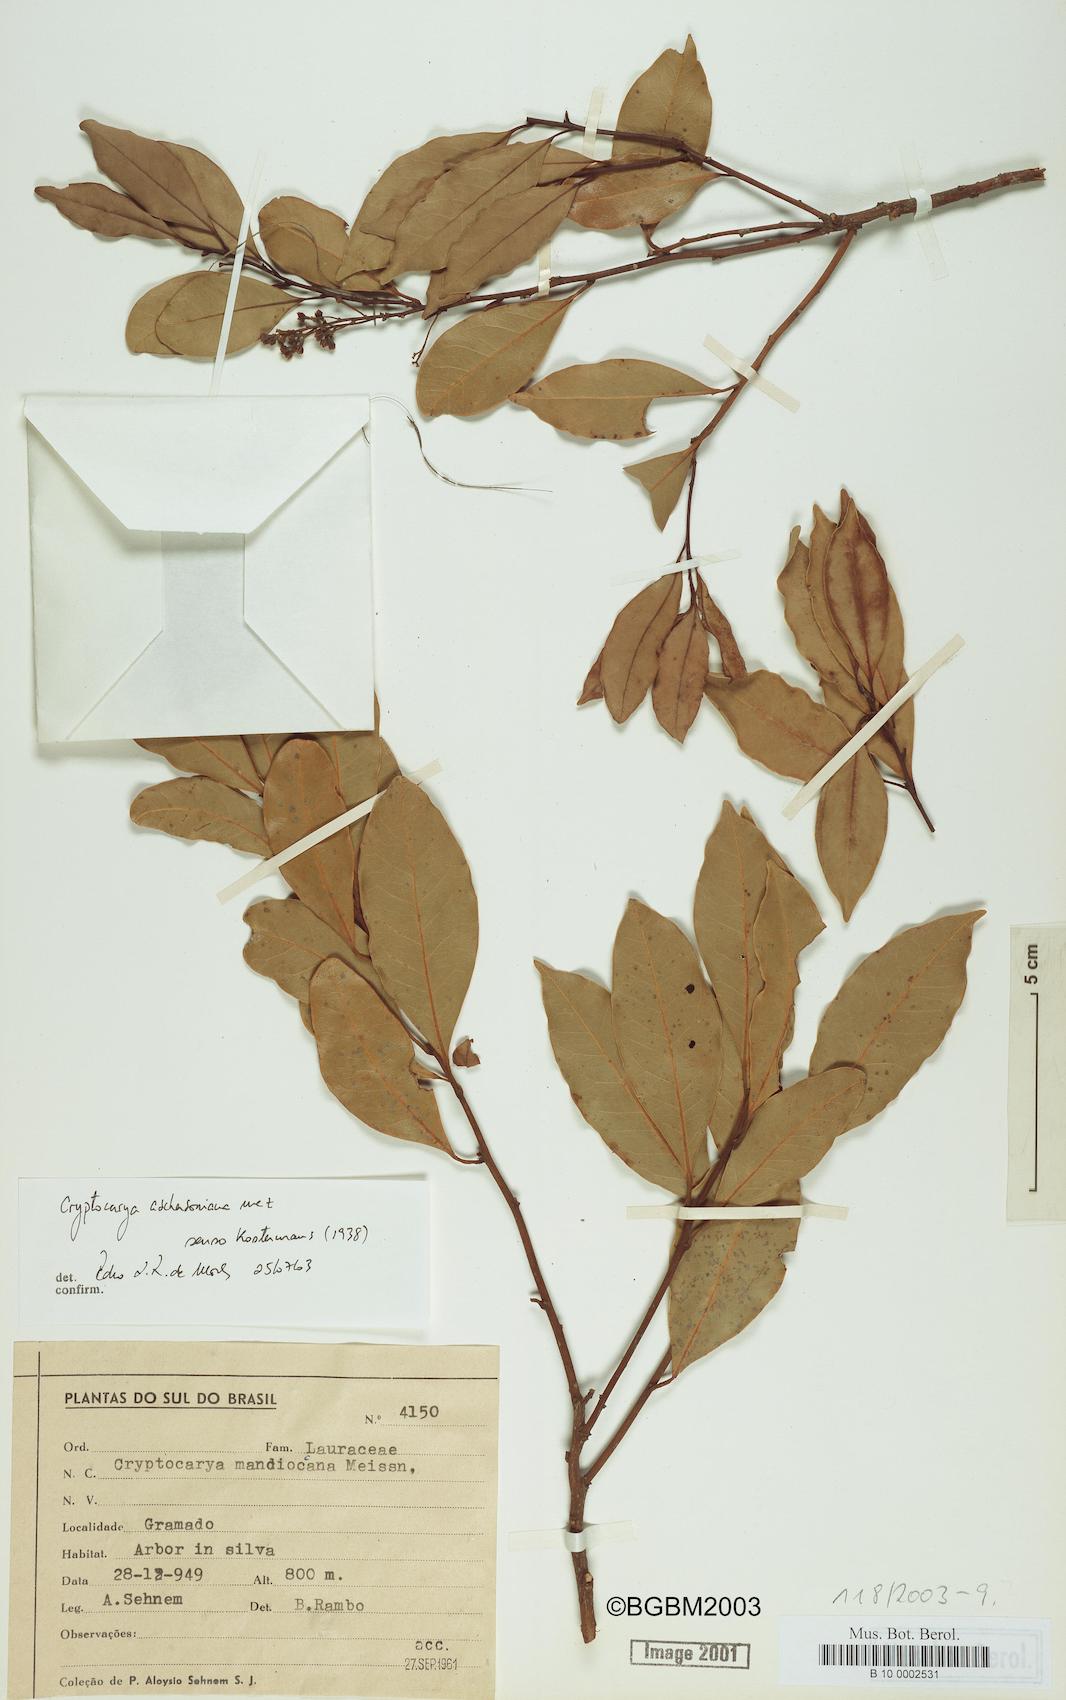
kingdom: Plantae
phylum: Tracheophyta
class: Magnoliopsida
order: Laurales
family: Lauraceae
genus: Cryptocarya
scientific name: Cryptocarya mandioccana
